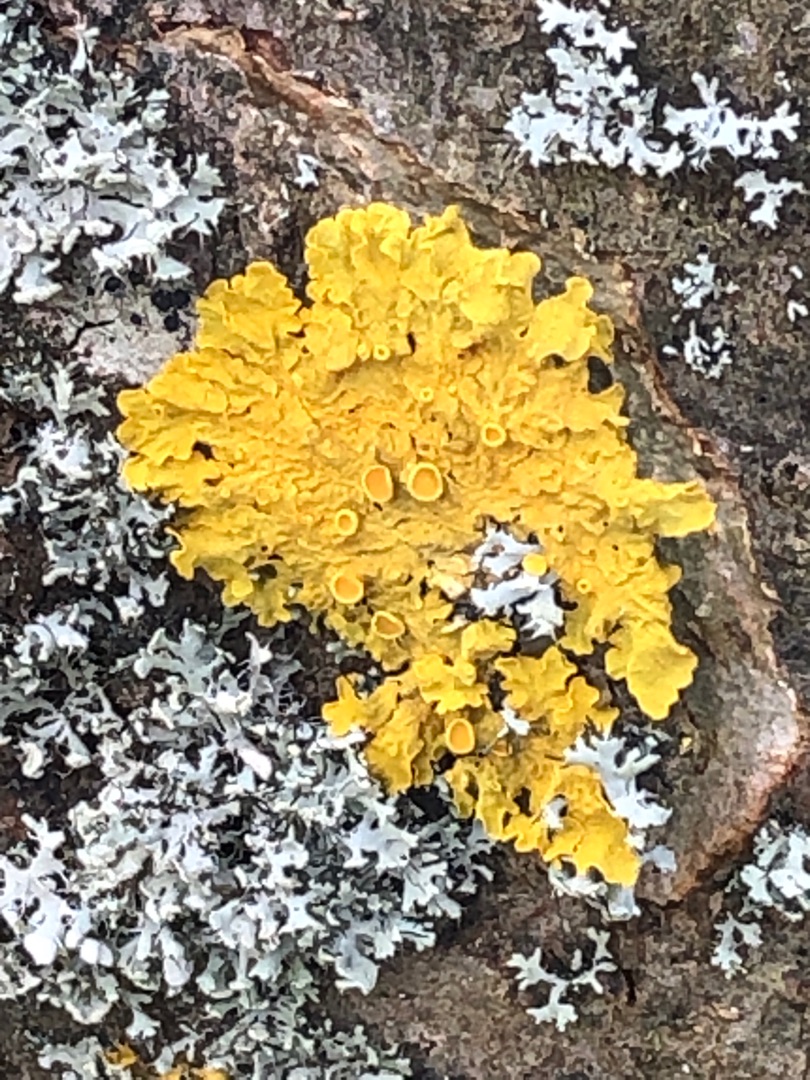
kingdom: Fungi
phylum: Ascomycota
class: Lecanoromycetes
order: Teloschistales
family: Teloschistaceae
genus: Xanthoria
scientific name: Xanthoria parietina
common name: Almindelig væggelav
